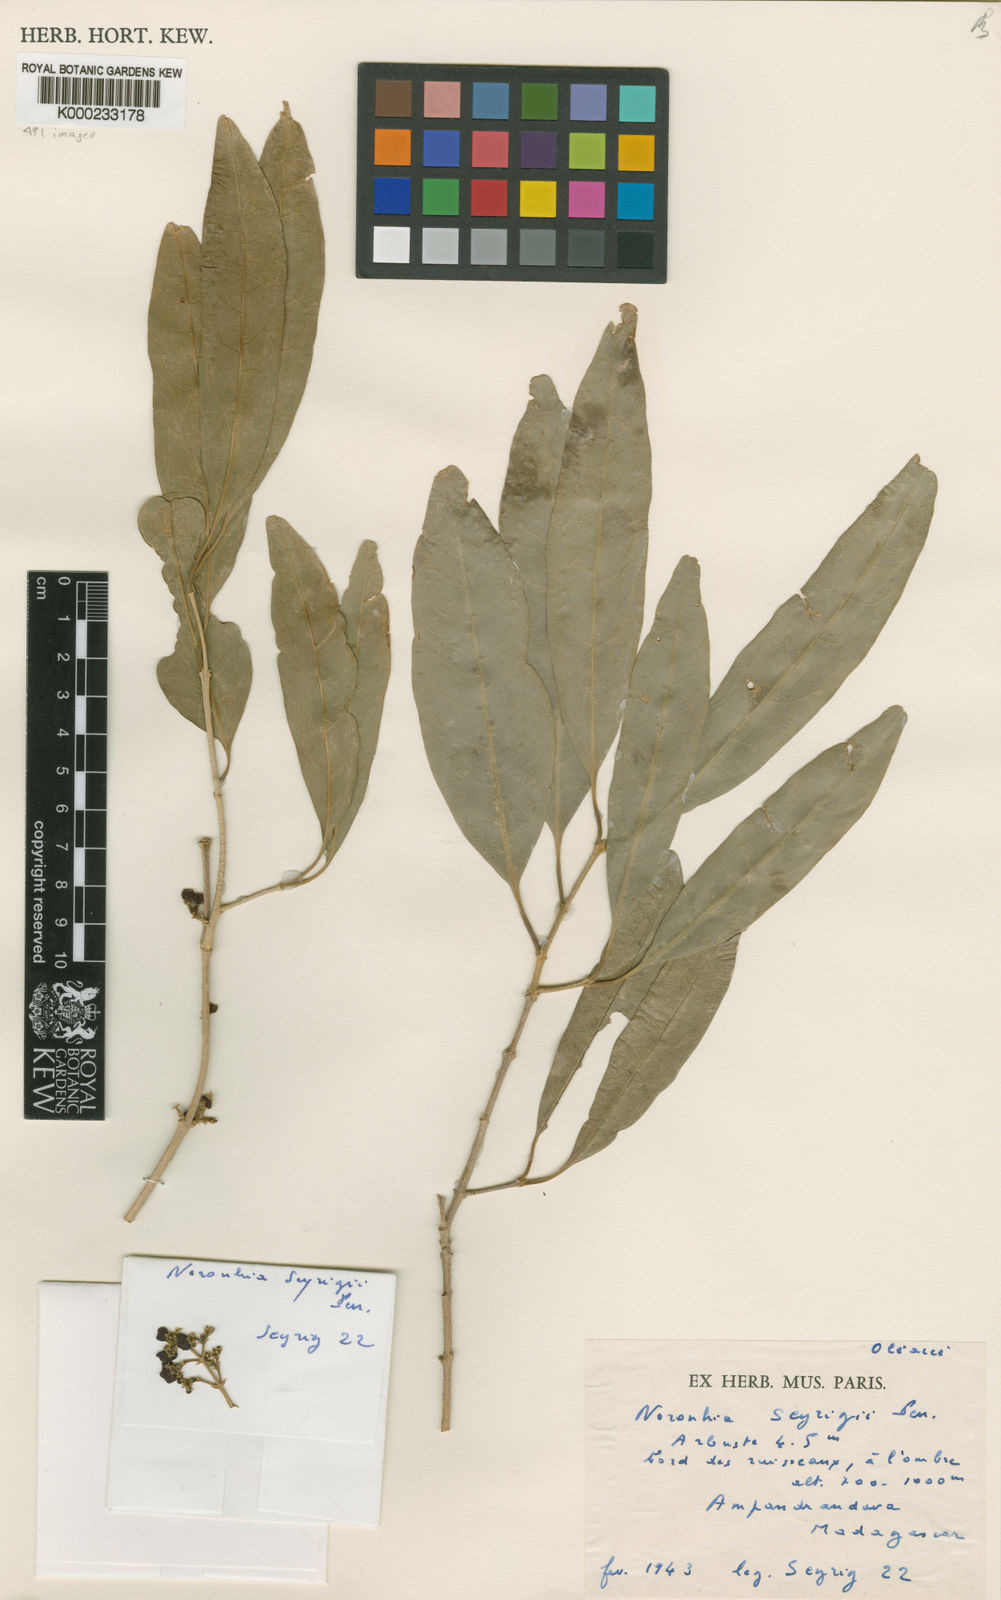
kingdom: Plantae
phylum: Tracheophyta
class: Magnoliopsida
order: Lamiales
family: Oleaceae
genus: Noronhia
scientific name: Noronhia seyrigii
